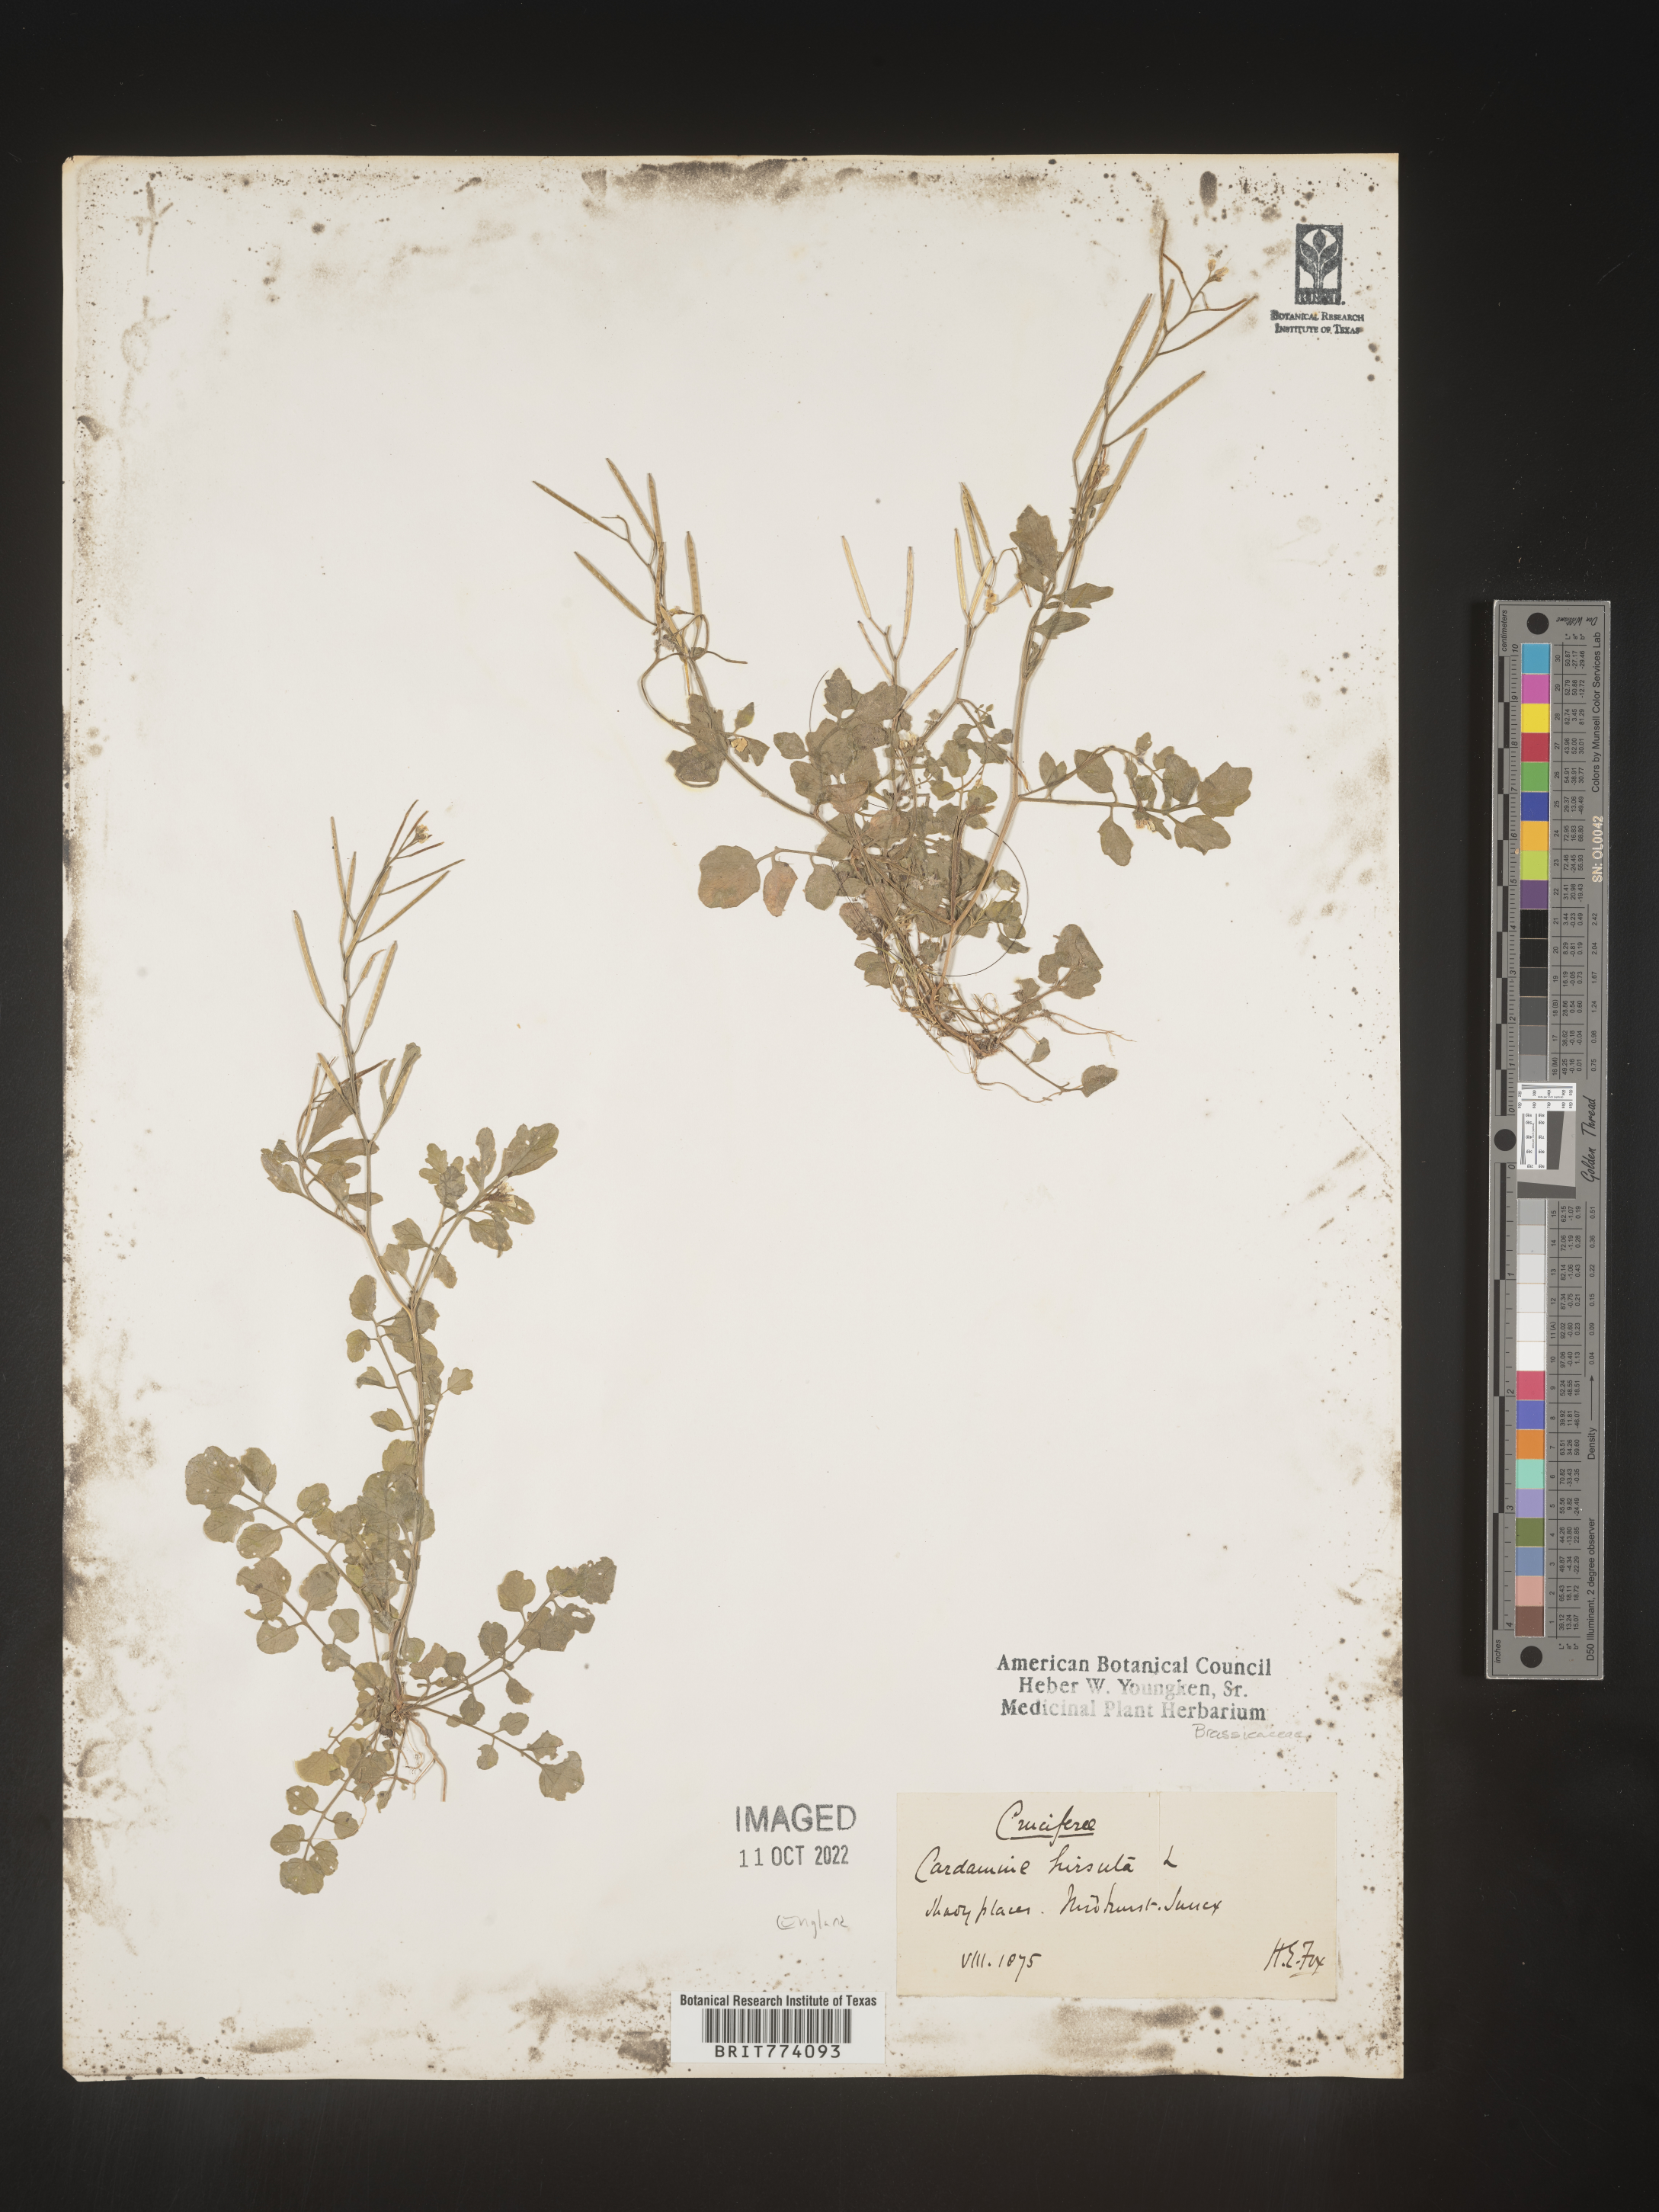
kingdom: Plantae
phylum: Tracheophyta
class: Magnoliopsida
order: Brassicales
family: Brassicaceae
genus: Cardamine
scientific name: Cardamine hirsuta
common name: Hairy bittercress
